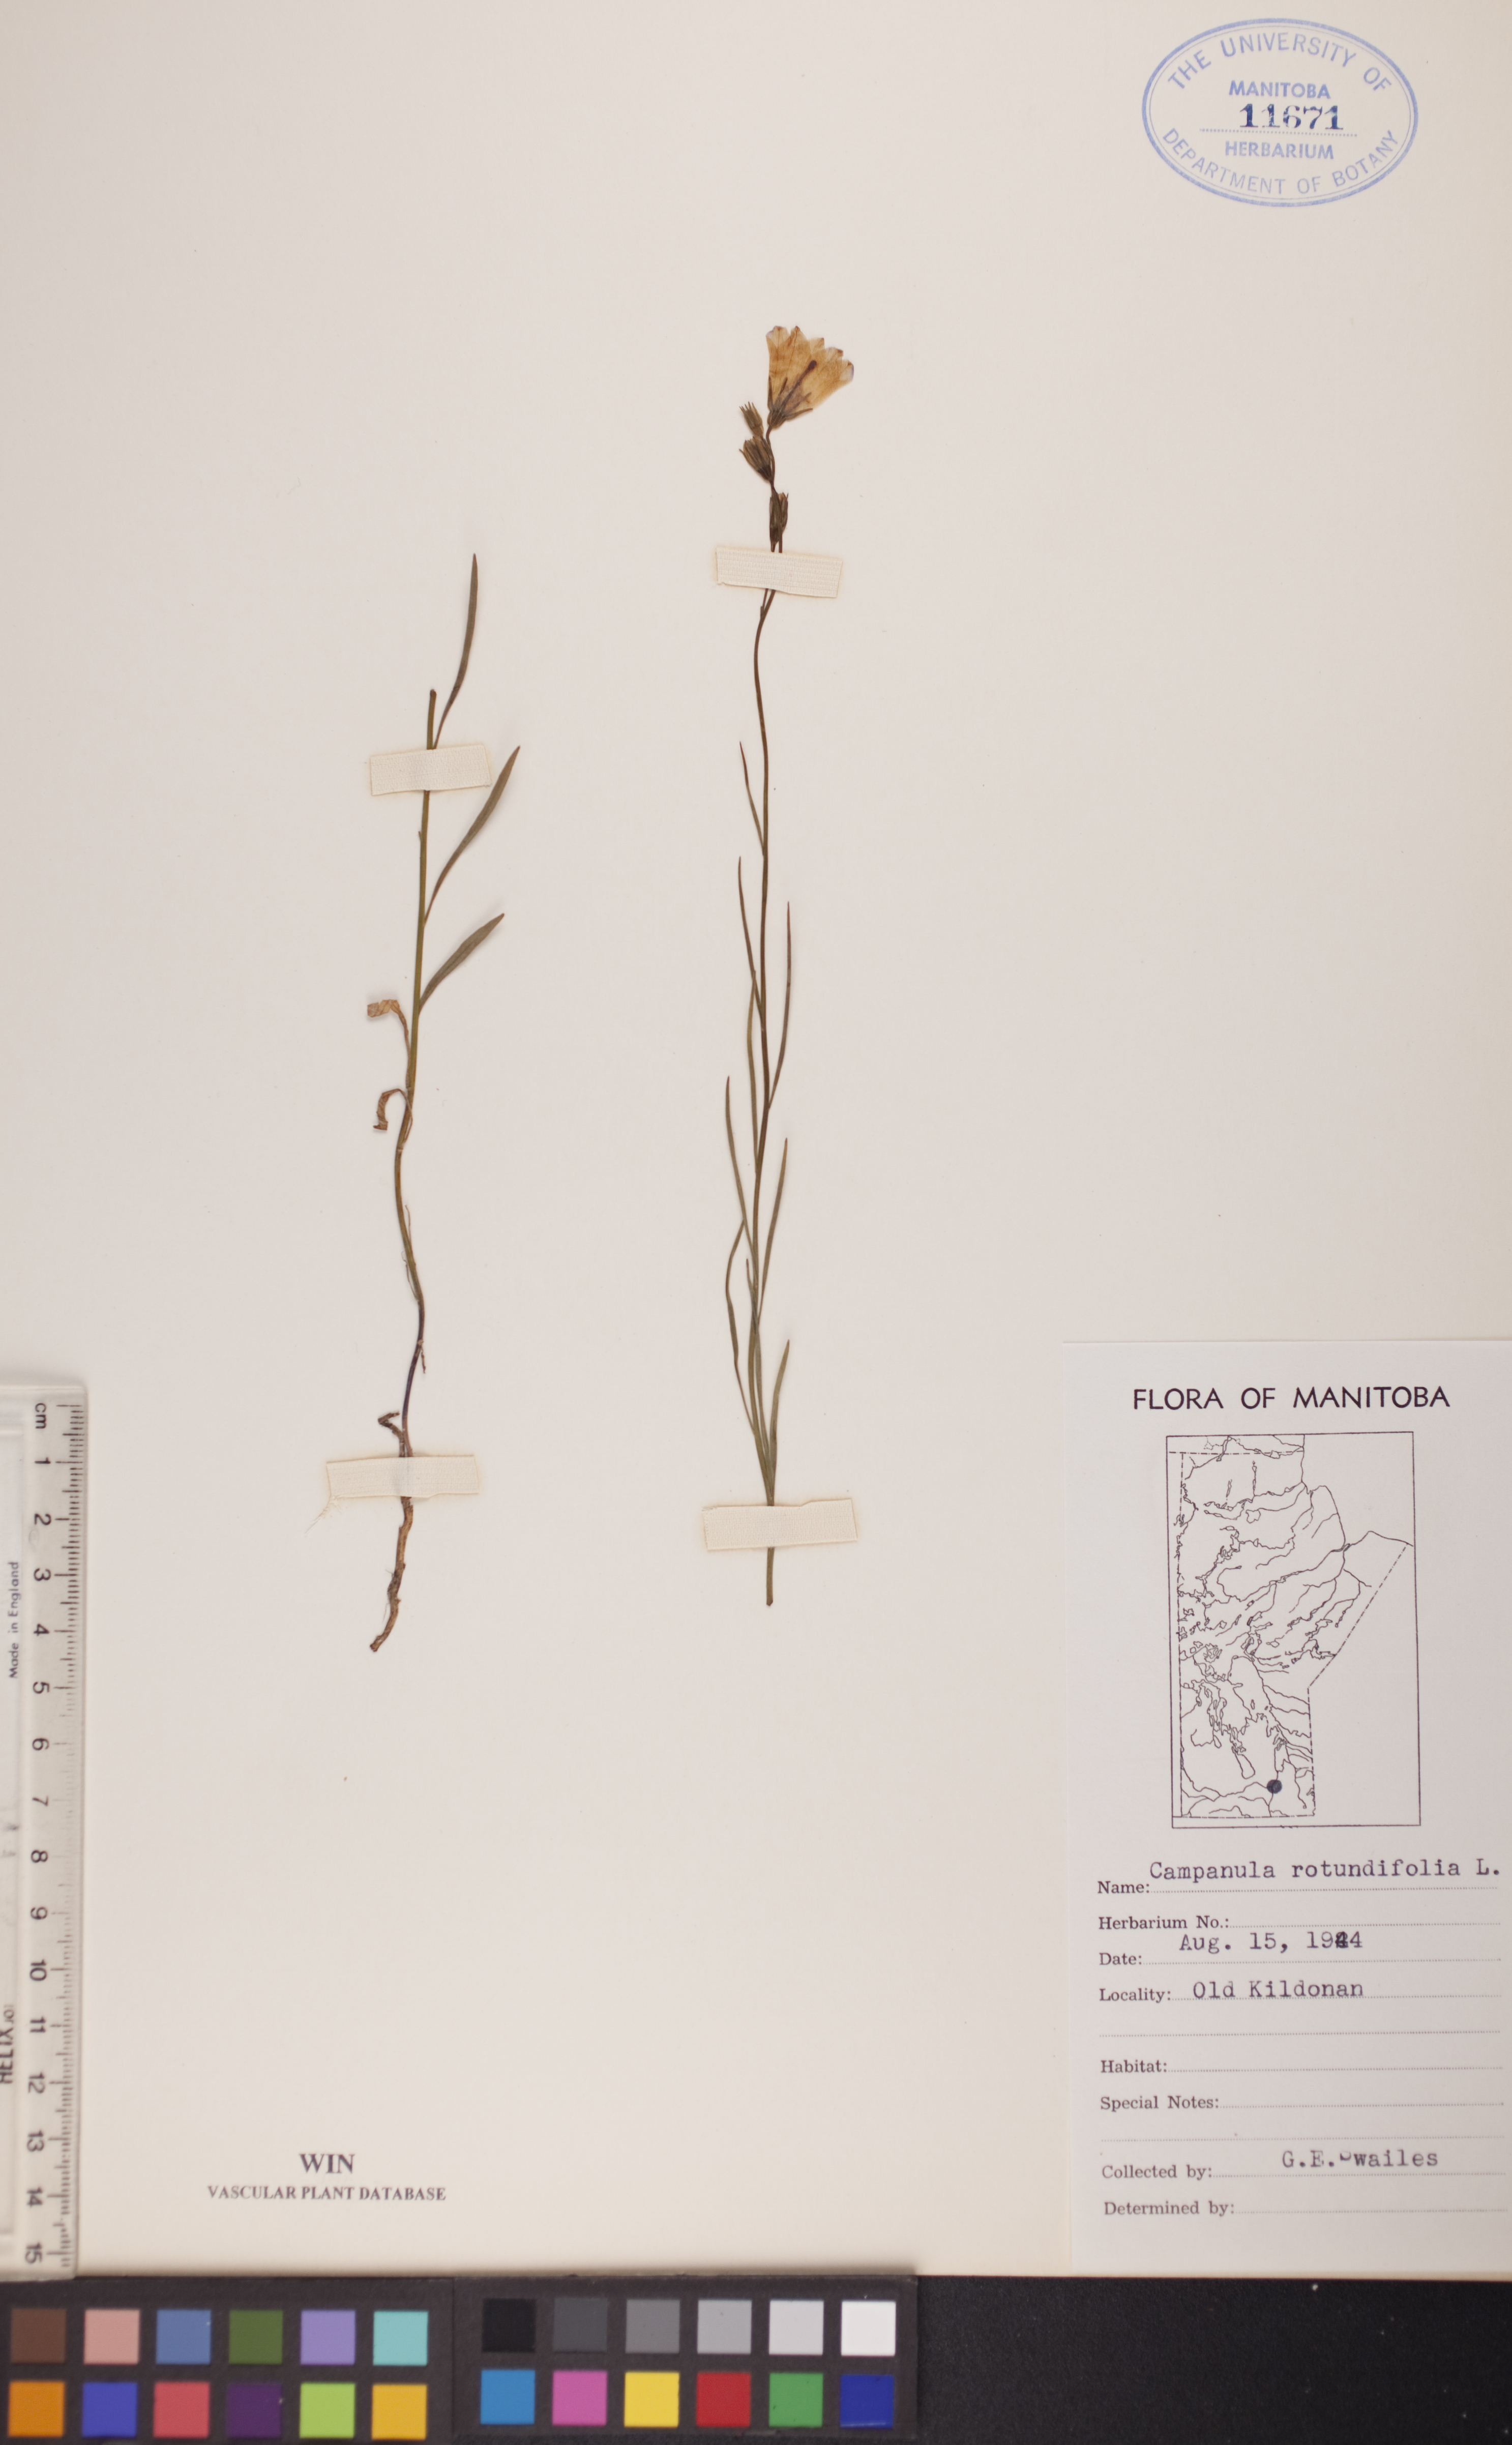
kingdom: Plantae
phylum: Tracheophyta
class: Magnoliopsida
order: Asterales
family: Campanulaceae
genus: Campanula
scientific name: Campanula rotundifolia
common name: Harebell
